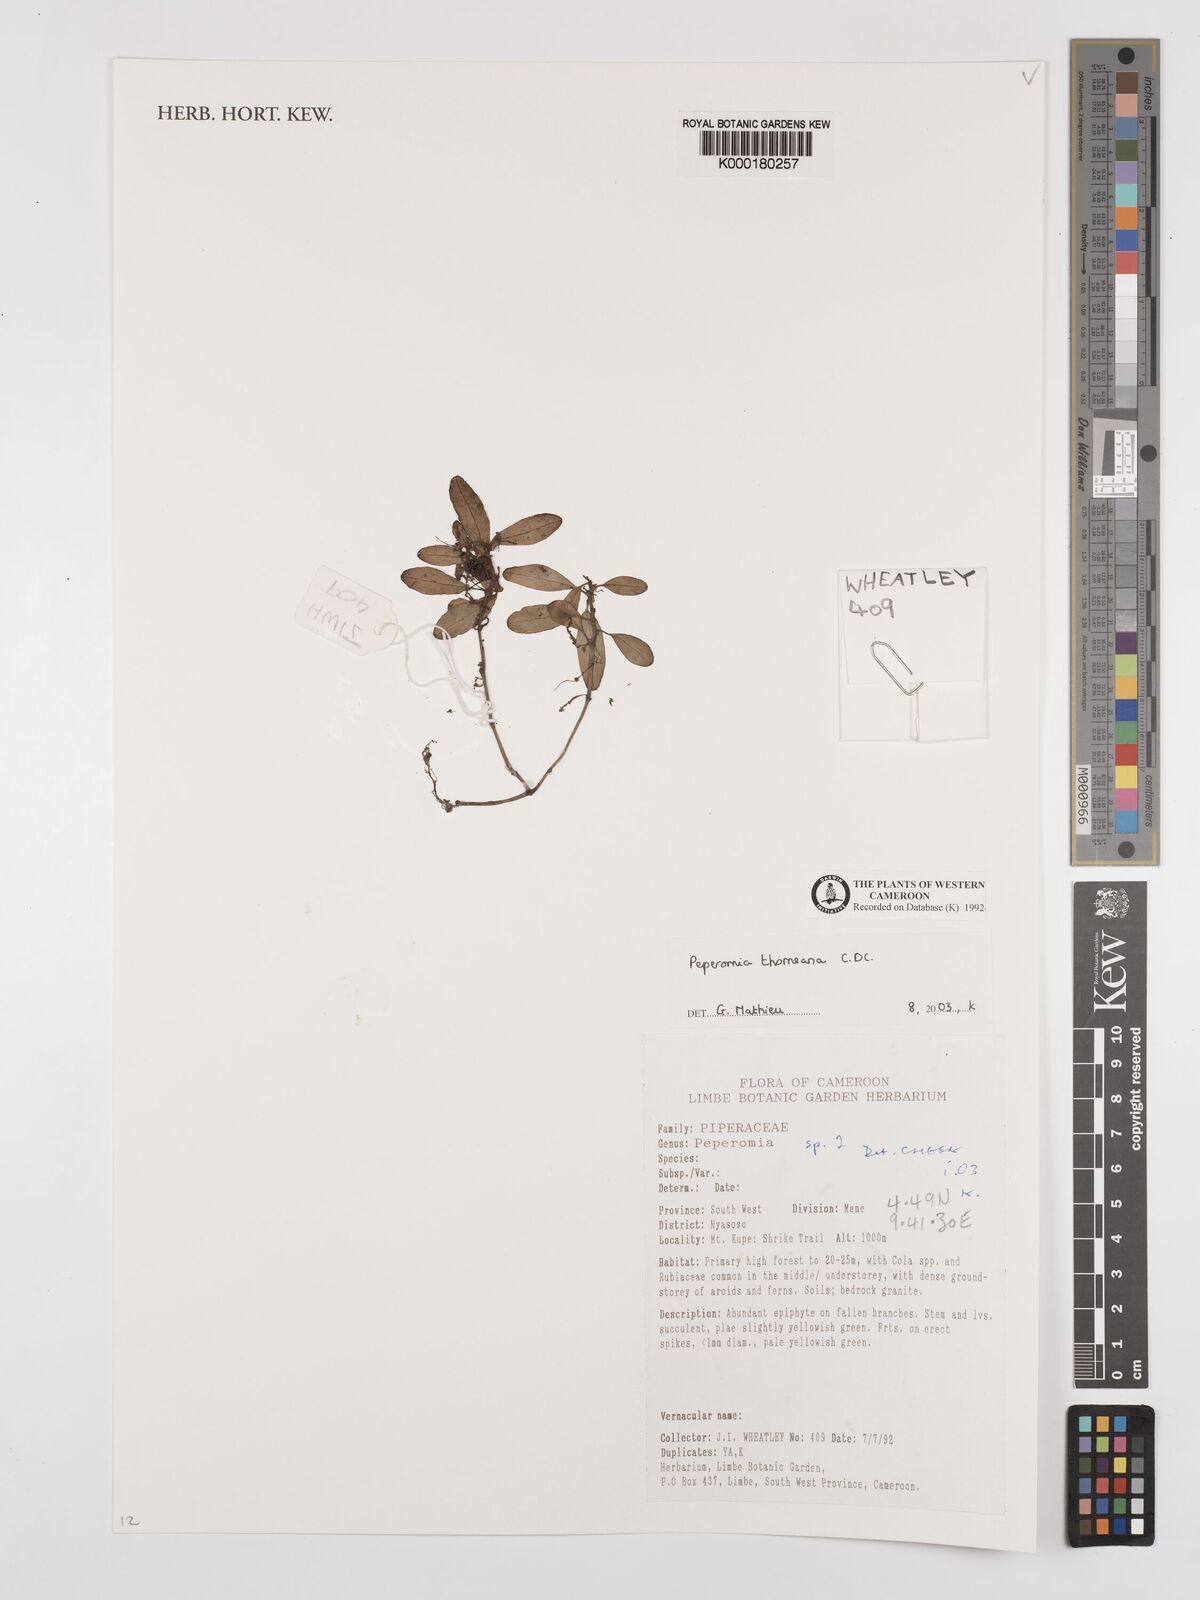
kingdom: Plantae
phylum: Tracheophyta
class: Magnoliopsida
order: Piperales
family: Piperaceae
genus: Peperomia
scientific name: Peperomia thomeana
